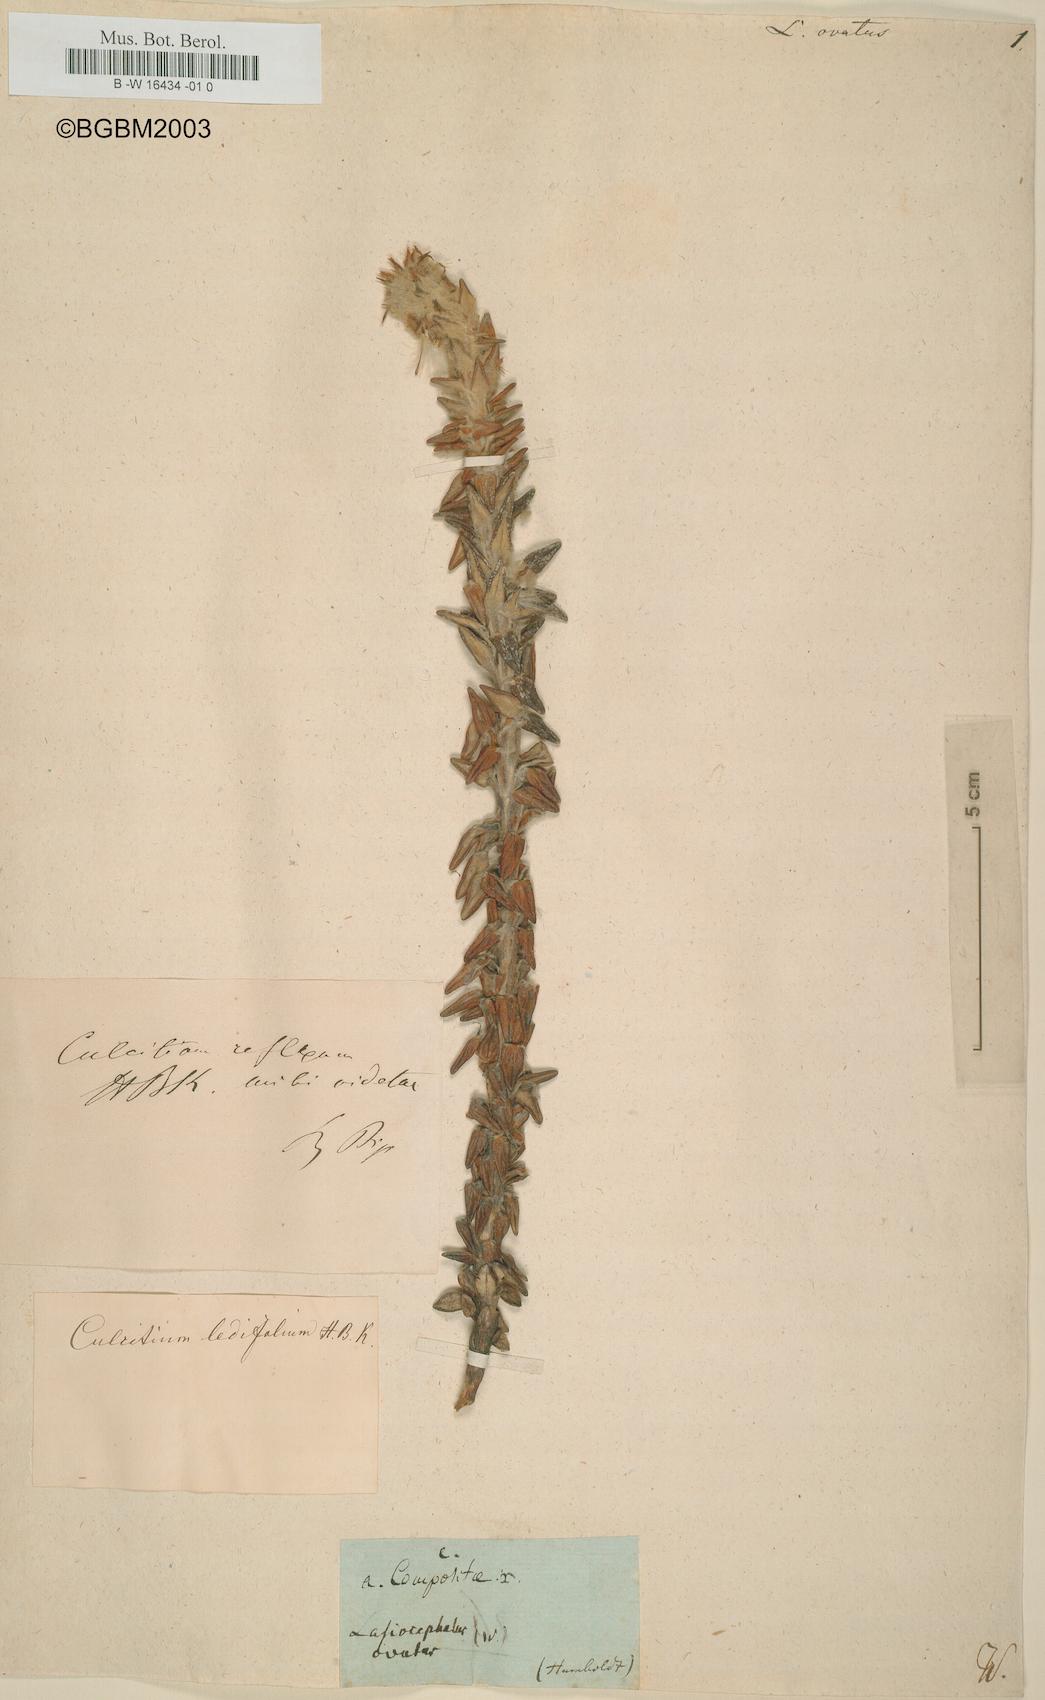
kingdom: Plantae
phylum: Tracheophyta
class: Magnoliopsida
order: Asterales
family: Asteraceae
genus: Lasiocephalus
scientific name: Lasiocephalus ovatus
